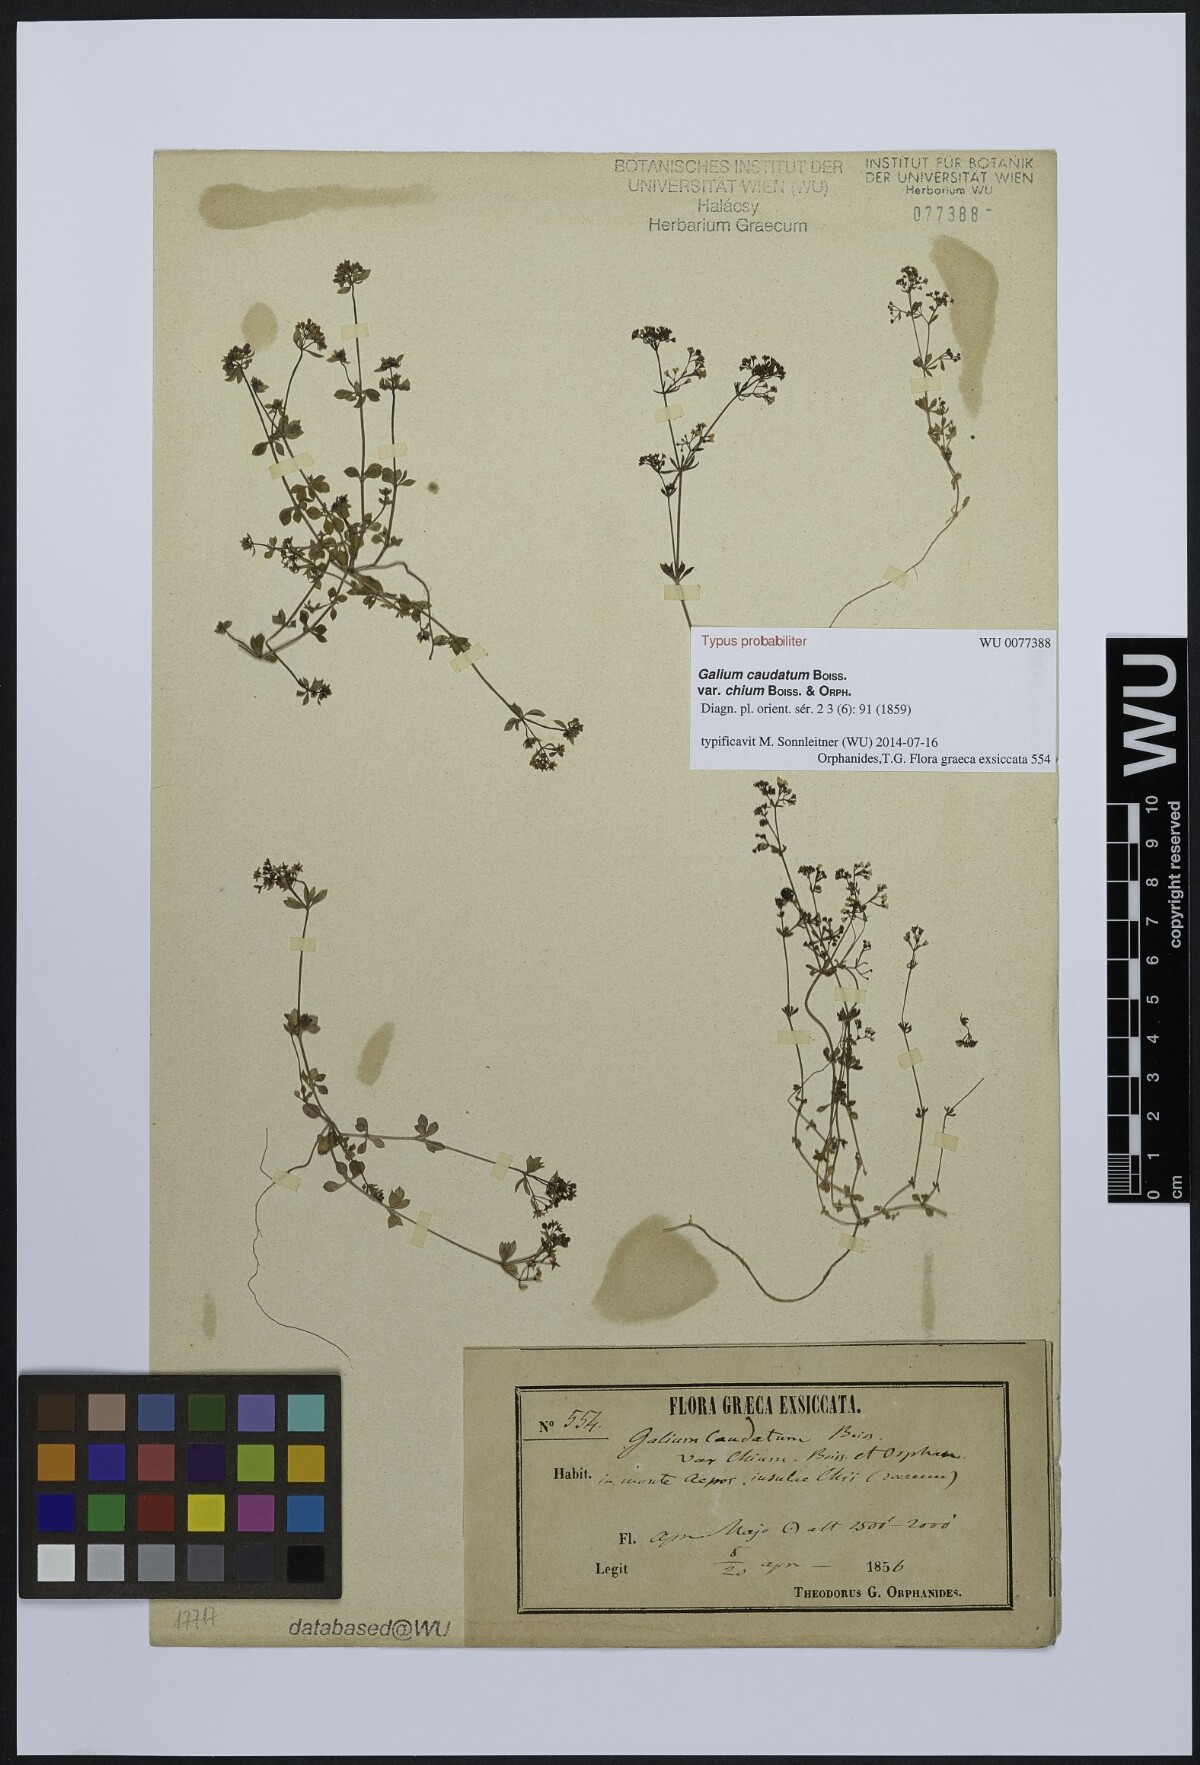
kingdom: Plantae
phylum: Tracheophyta
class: Magnoliopsida
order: Gentianales
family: Rubiaceae
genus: Galium
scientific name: Galium brevifolium
